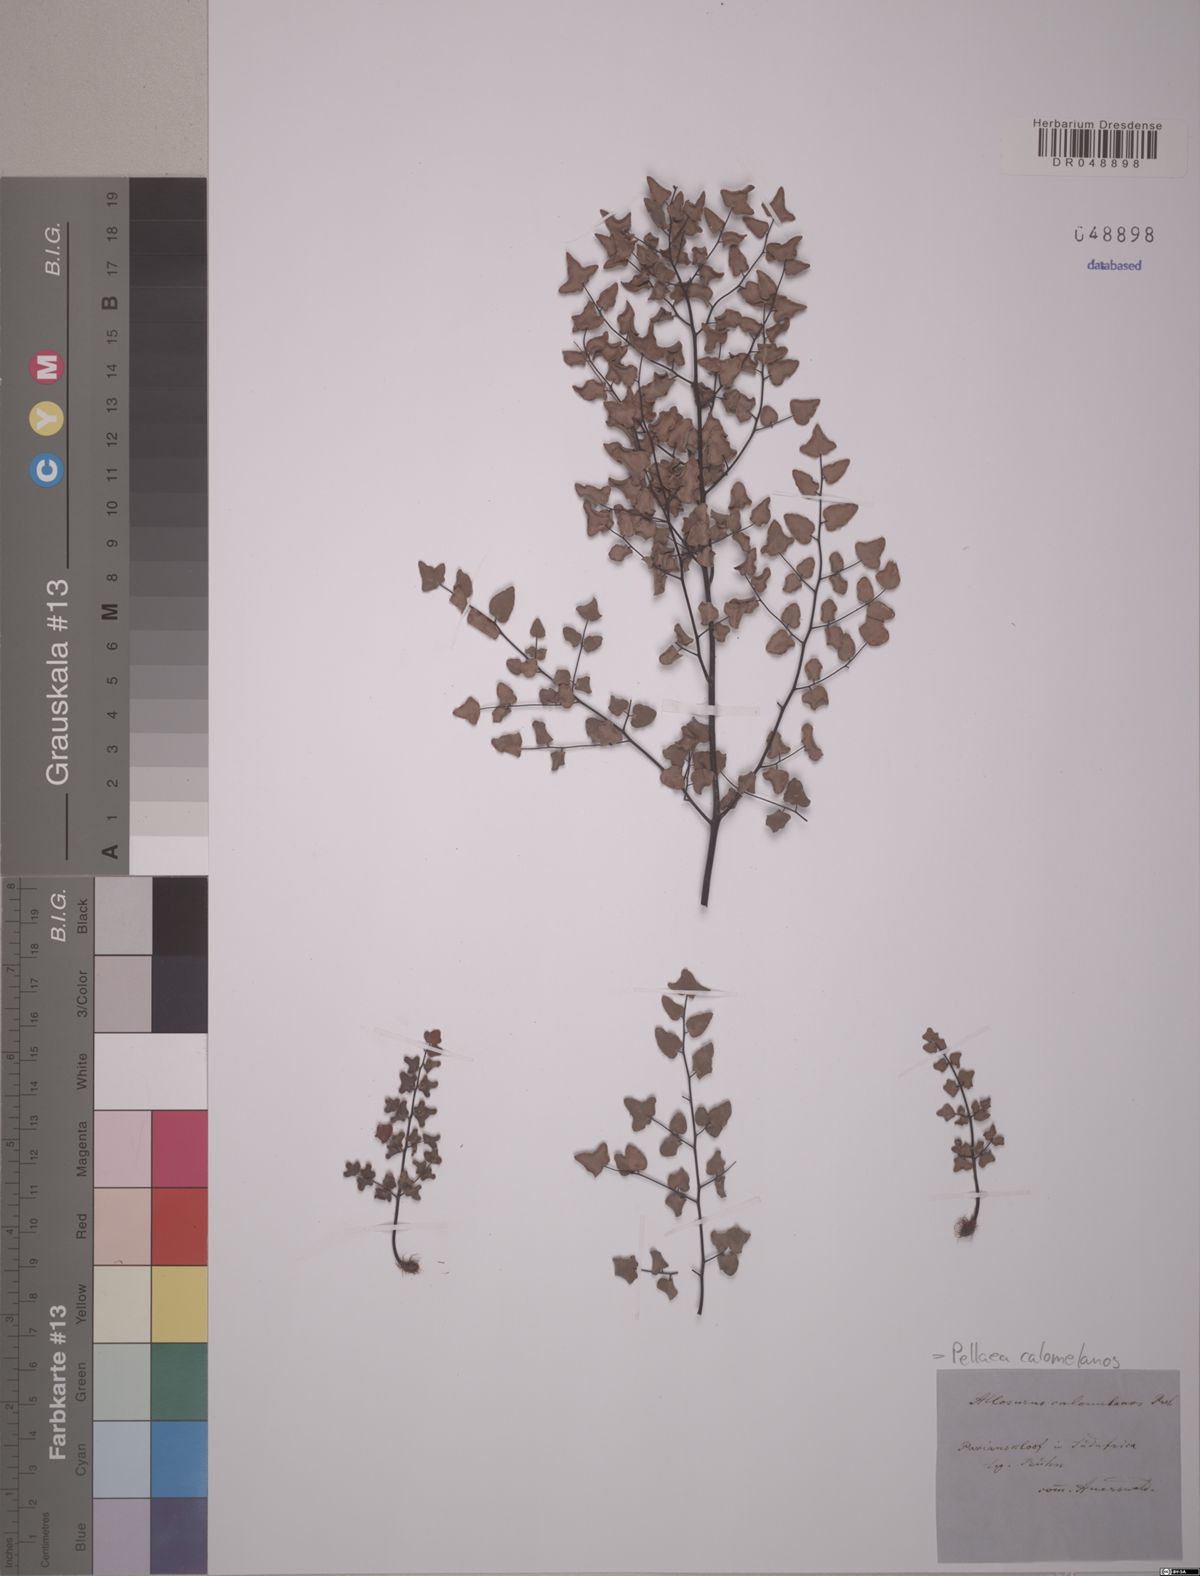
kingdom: Plantae
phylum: Tracheophyta
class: Polypodiopsida
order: Polypodiales
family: Pteridaceae
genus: Pellaea
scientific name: Pellaea calomelanos
